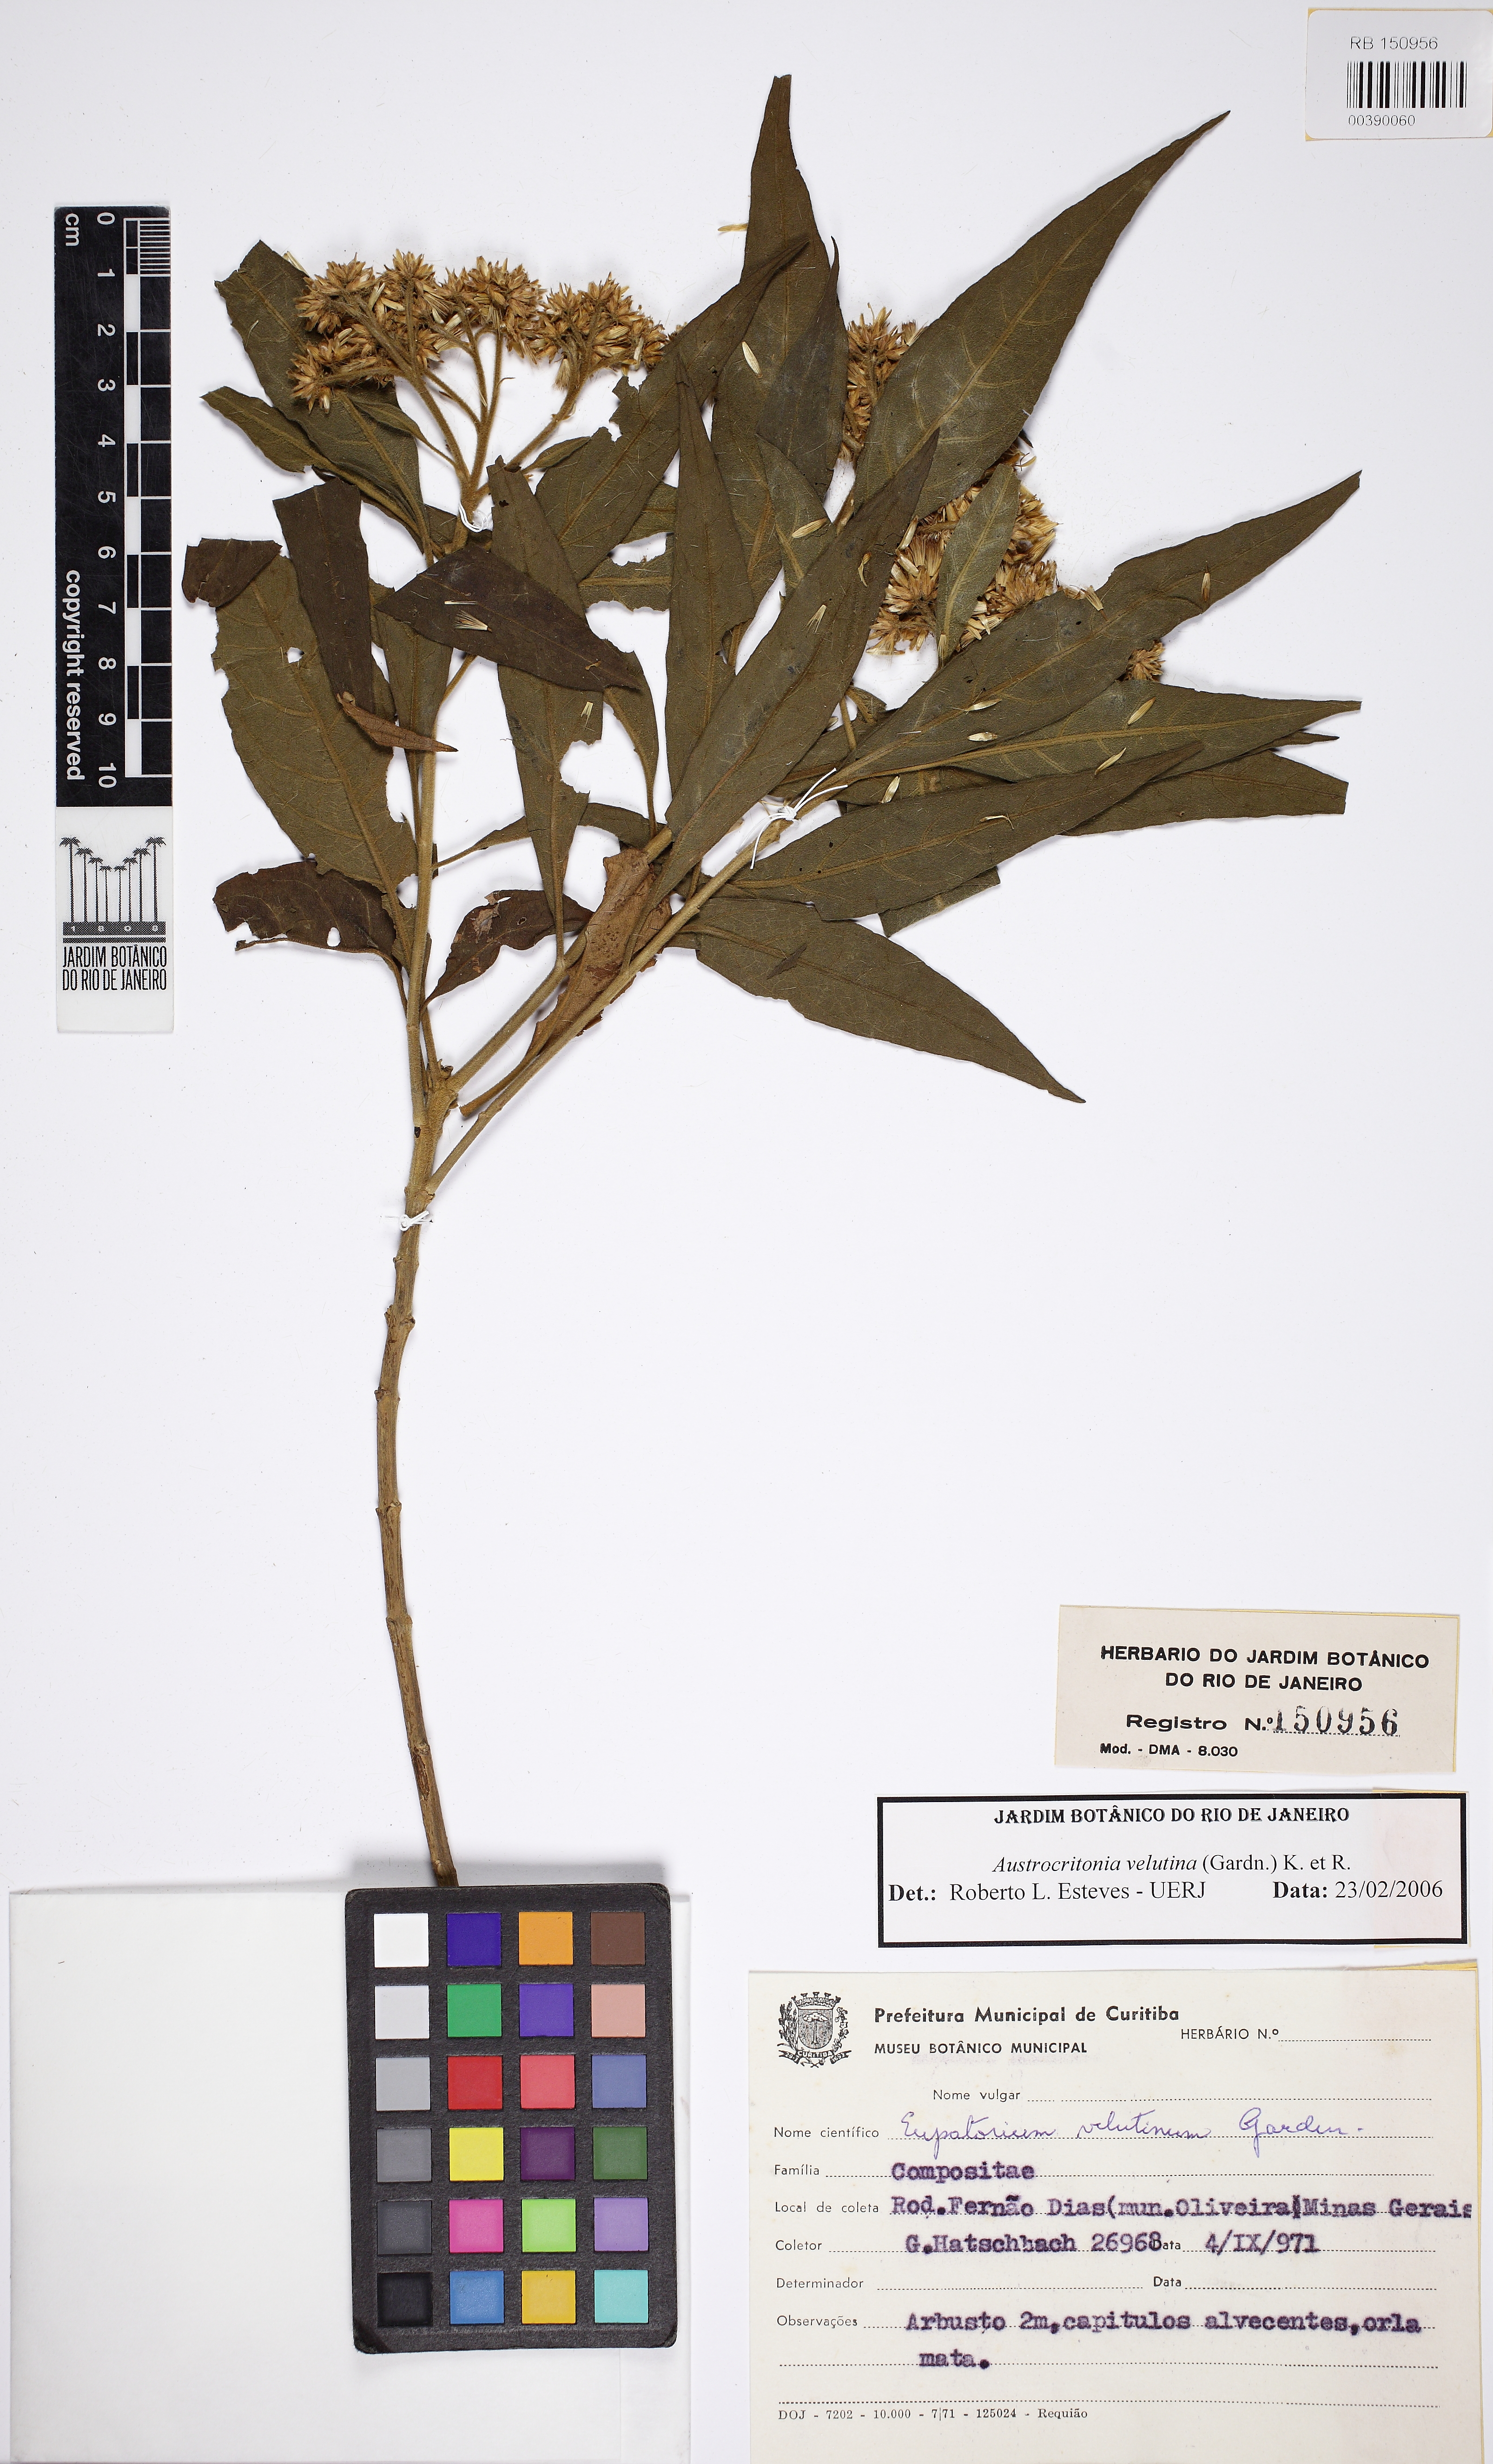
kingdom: Plantae
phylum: Tracheophyta
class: Magnoliopsida
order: Asterales
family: Asteraceae
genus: Austrocritonia
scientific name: Austrocritonia velutina
